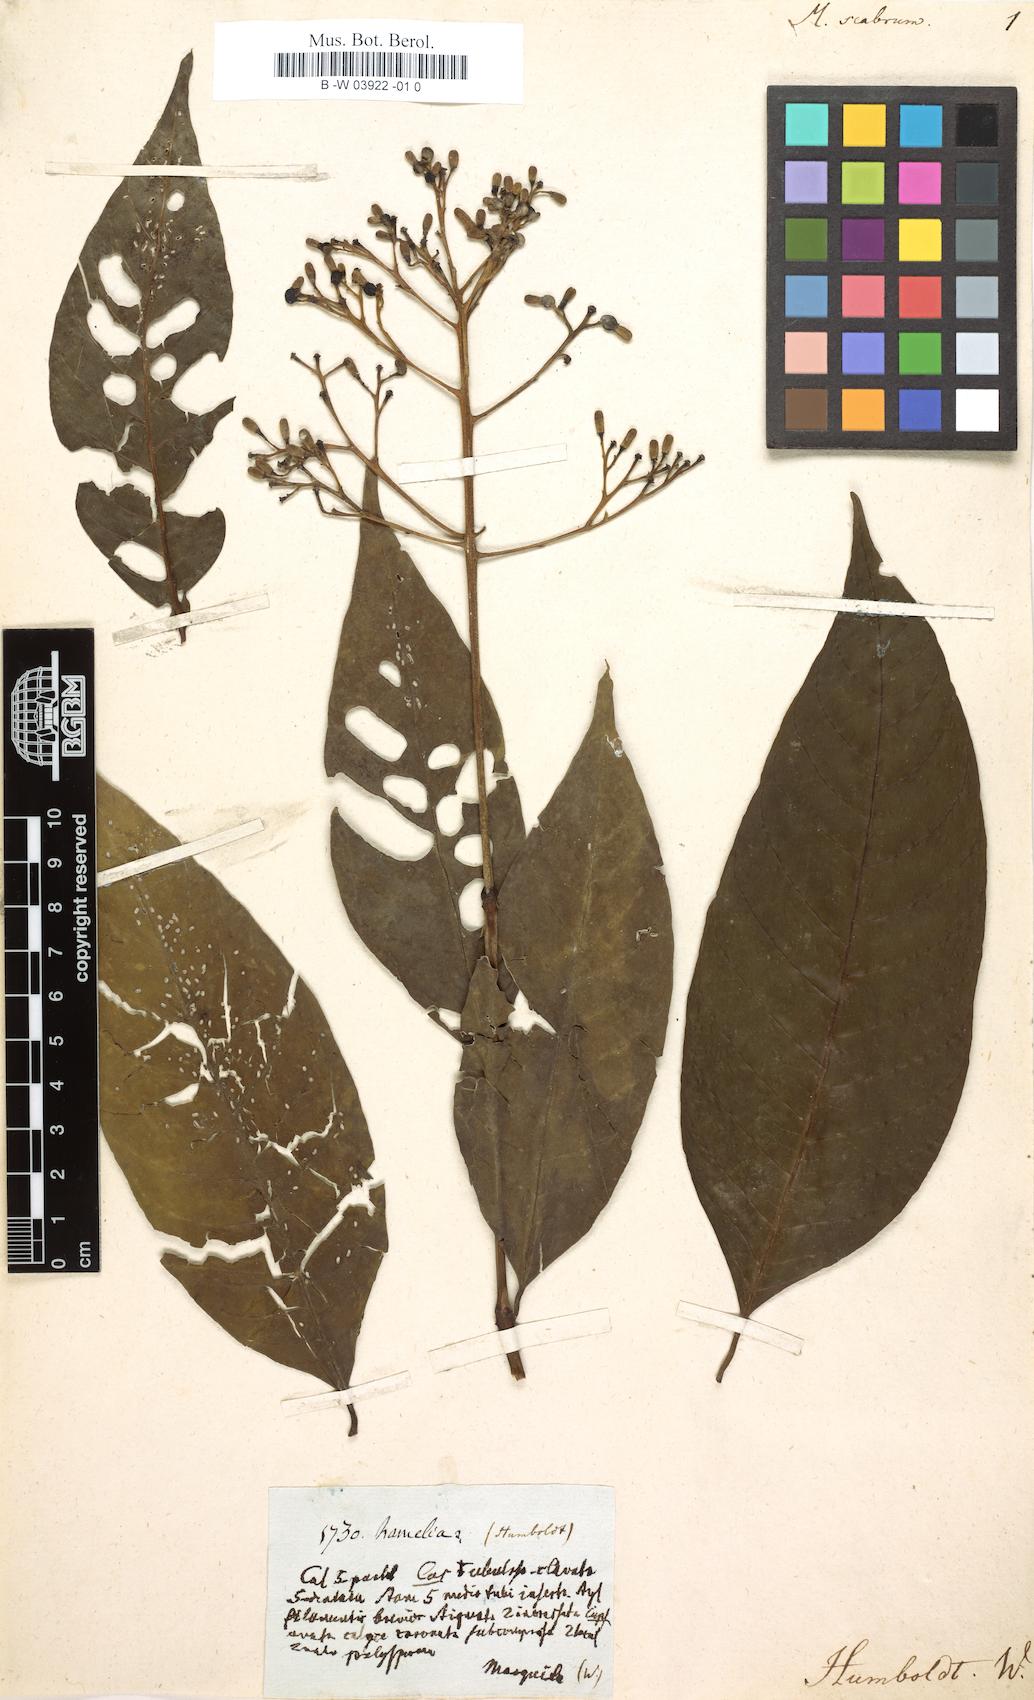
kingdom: Plantae
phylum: Tracheophyta
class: Magnoliopsida
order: Gentianales
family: Rubiaceae
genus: Macrocnemum
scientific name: Macrocnemum scabrum
